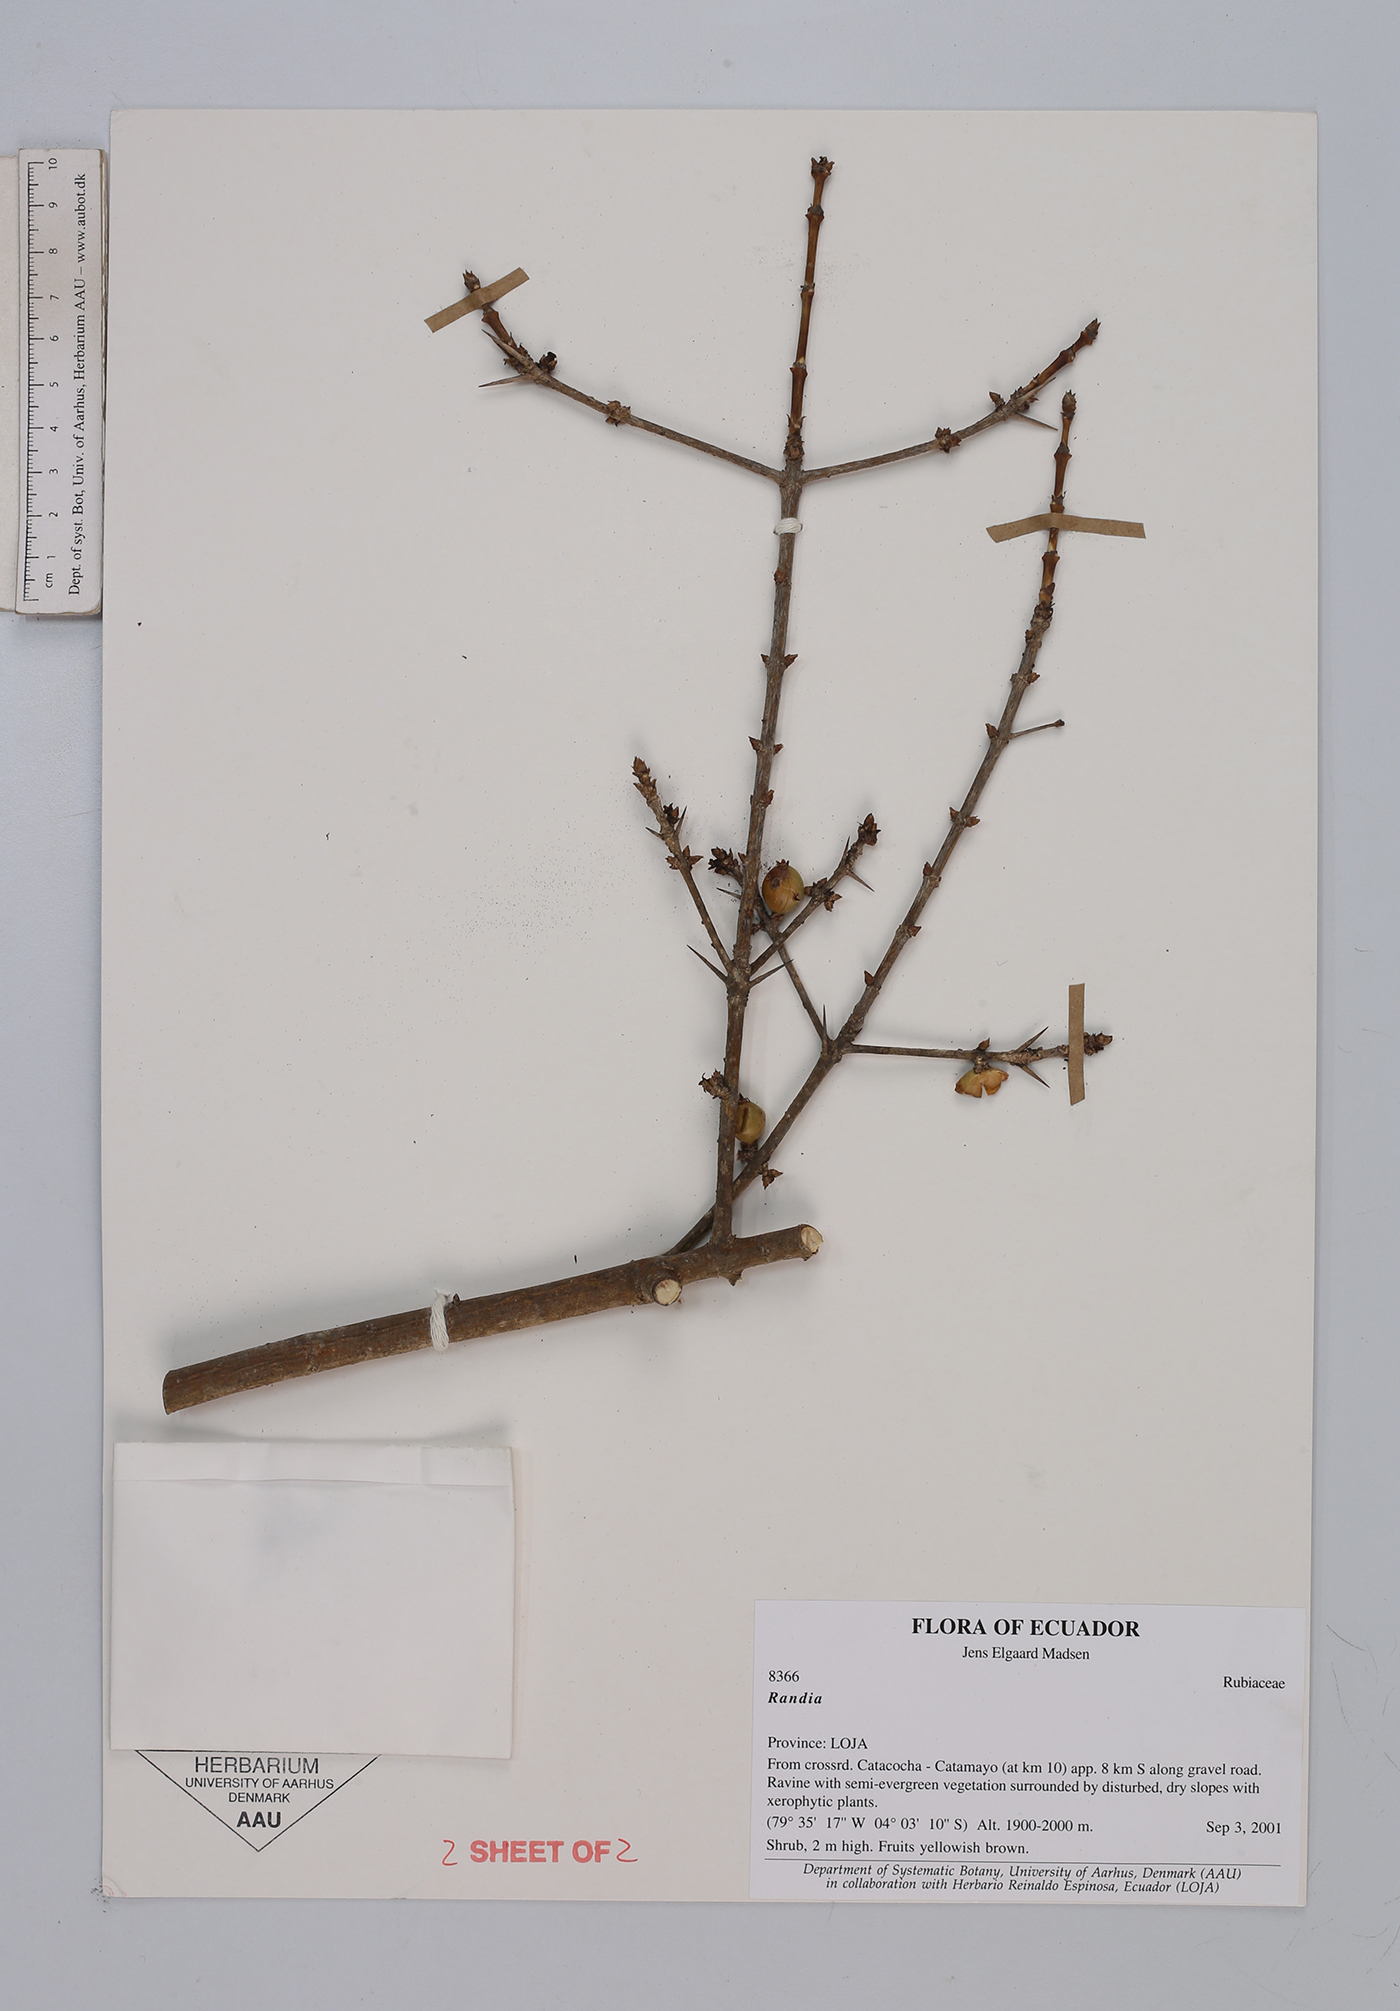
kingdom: Plantae
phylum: Tracheophyta
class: Magnoliopsida
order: Gentianales
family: Rubiaceae
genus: Randia
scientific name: Randia
